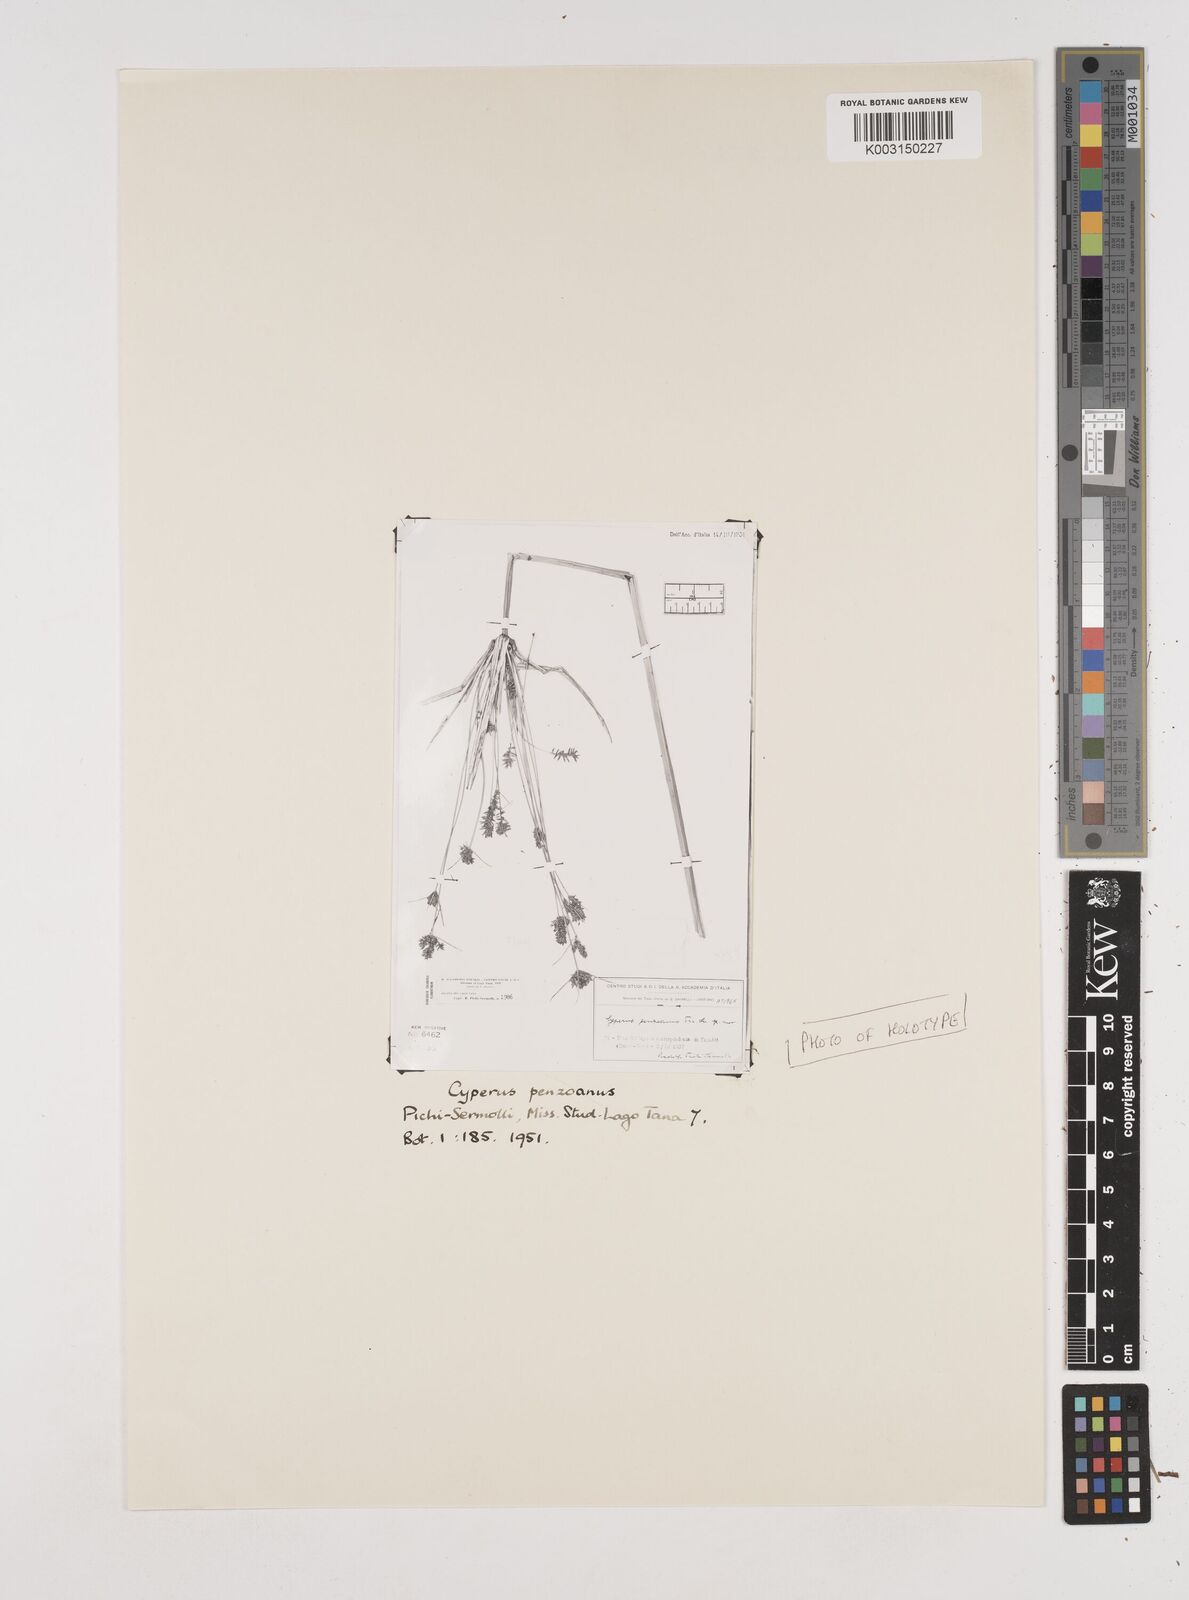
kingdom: Plantae
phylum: Tracheophyta
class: Liliopsida
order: Poales
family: Cyperaceae
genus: Cyperus
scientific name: Cyperus penzoanus
